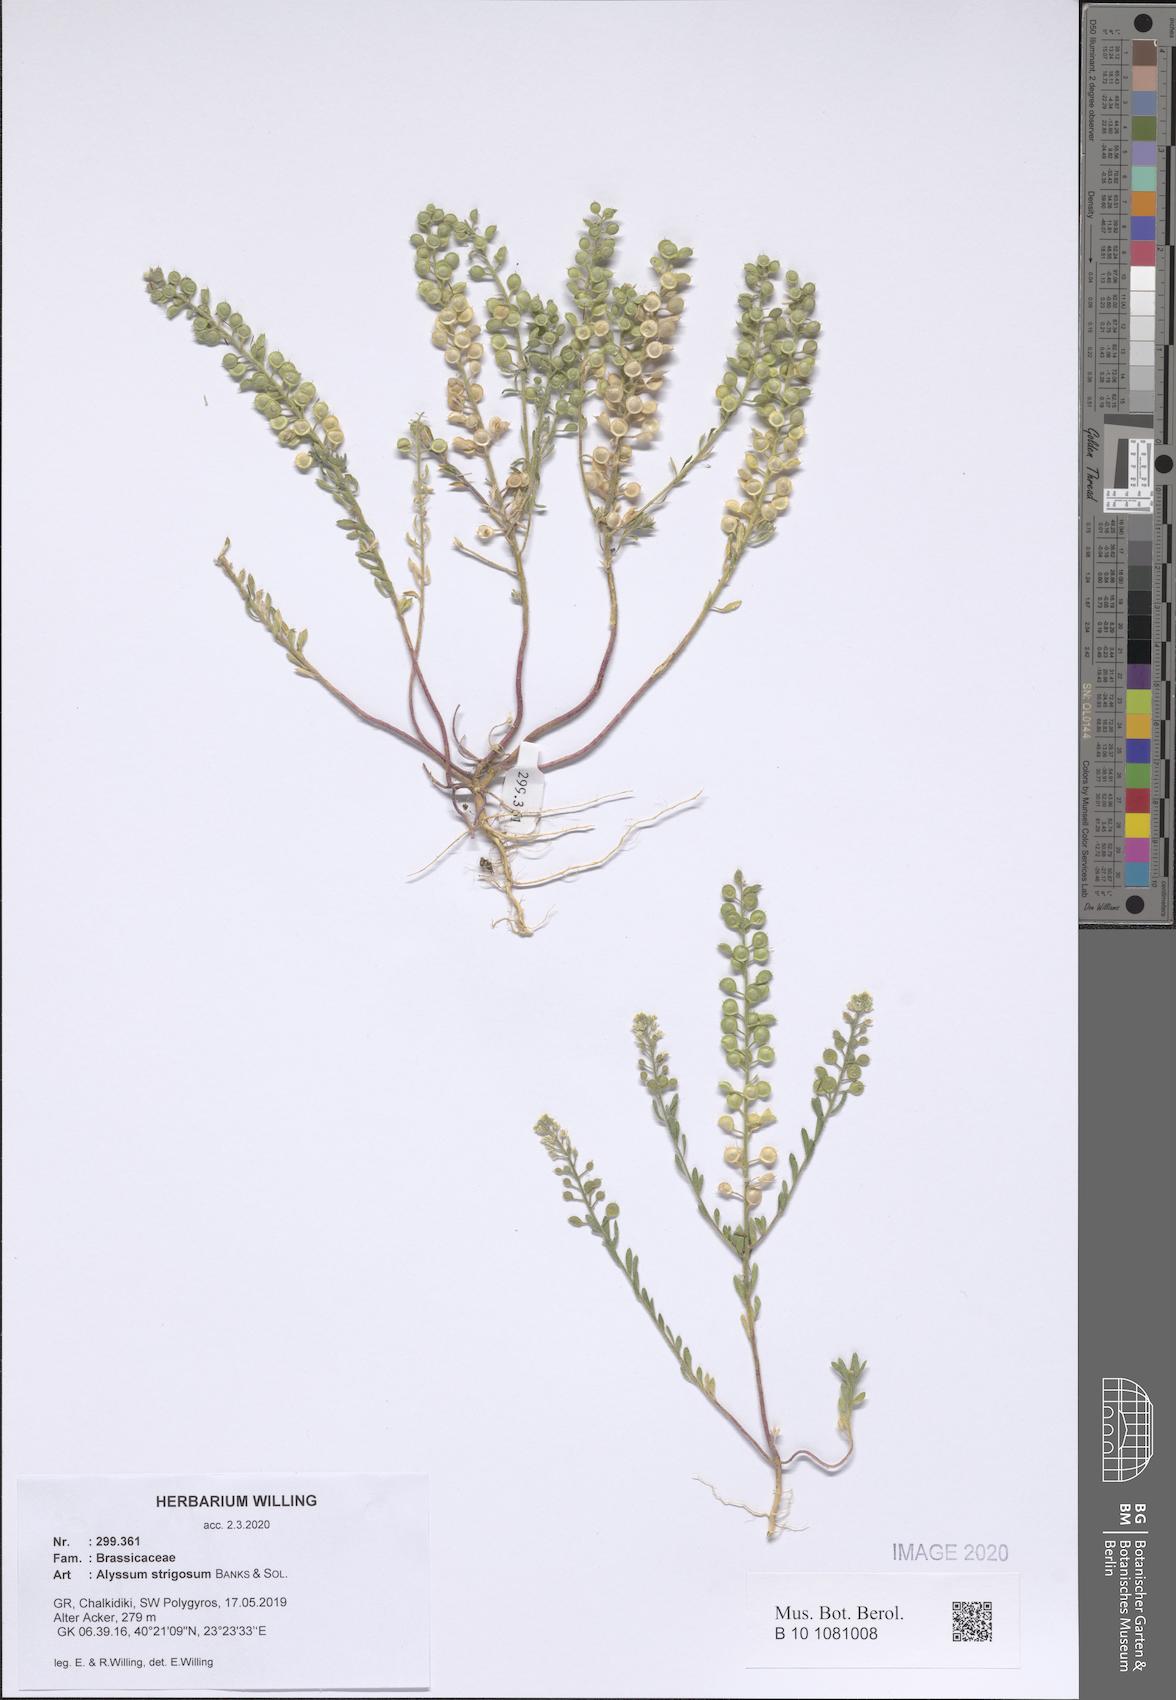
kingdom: Plantae
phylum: Tracheophyta
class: Magnoliopsida
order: Brassicales
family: Brassicaceae
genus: Alyssum
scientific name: Alyssum strigosum
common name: Alyssum
